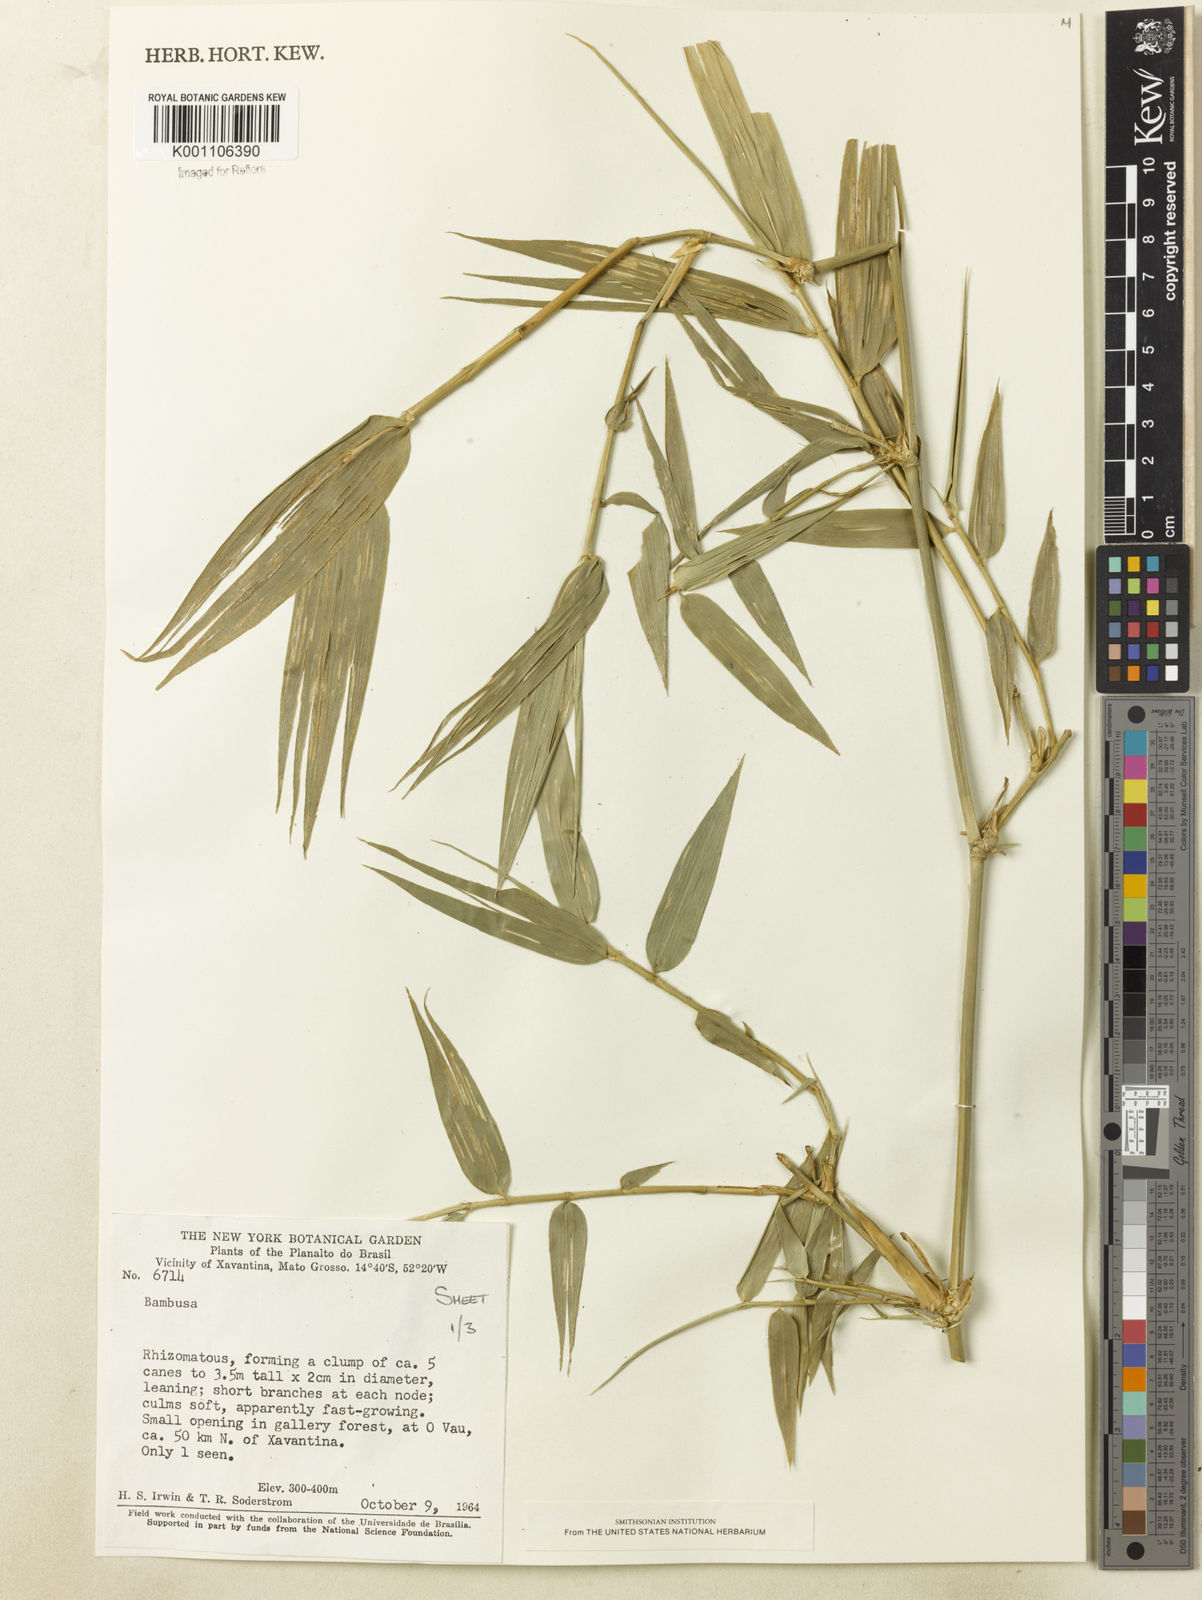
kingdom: Plantae
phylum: Tracheophyta
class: Liliopsida
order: Poales
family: Poaceae
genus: Guadua
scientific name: Guadua
